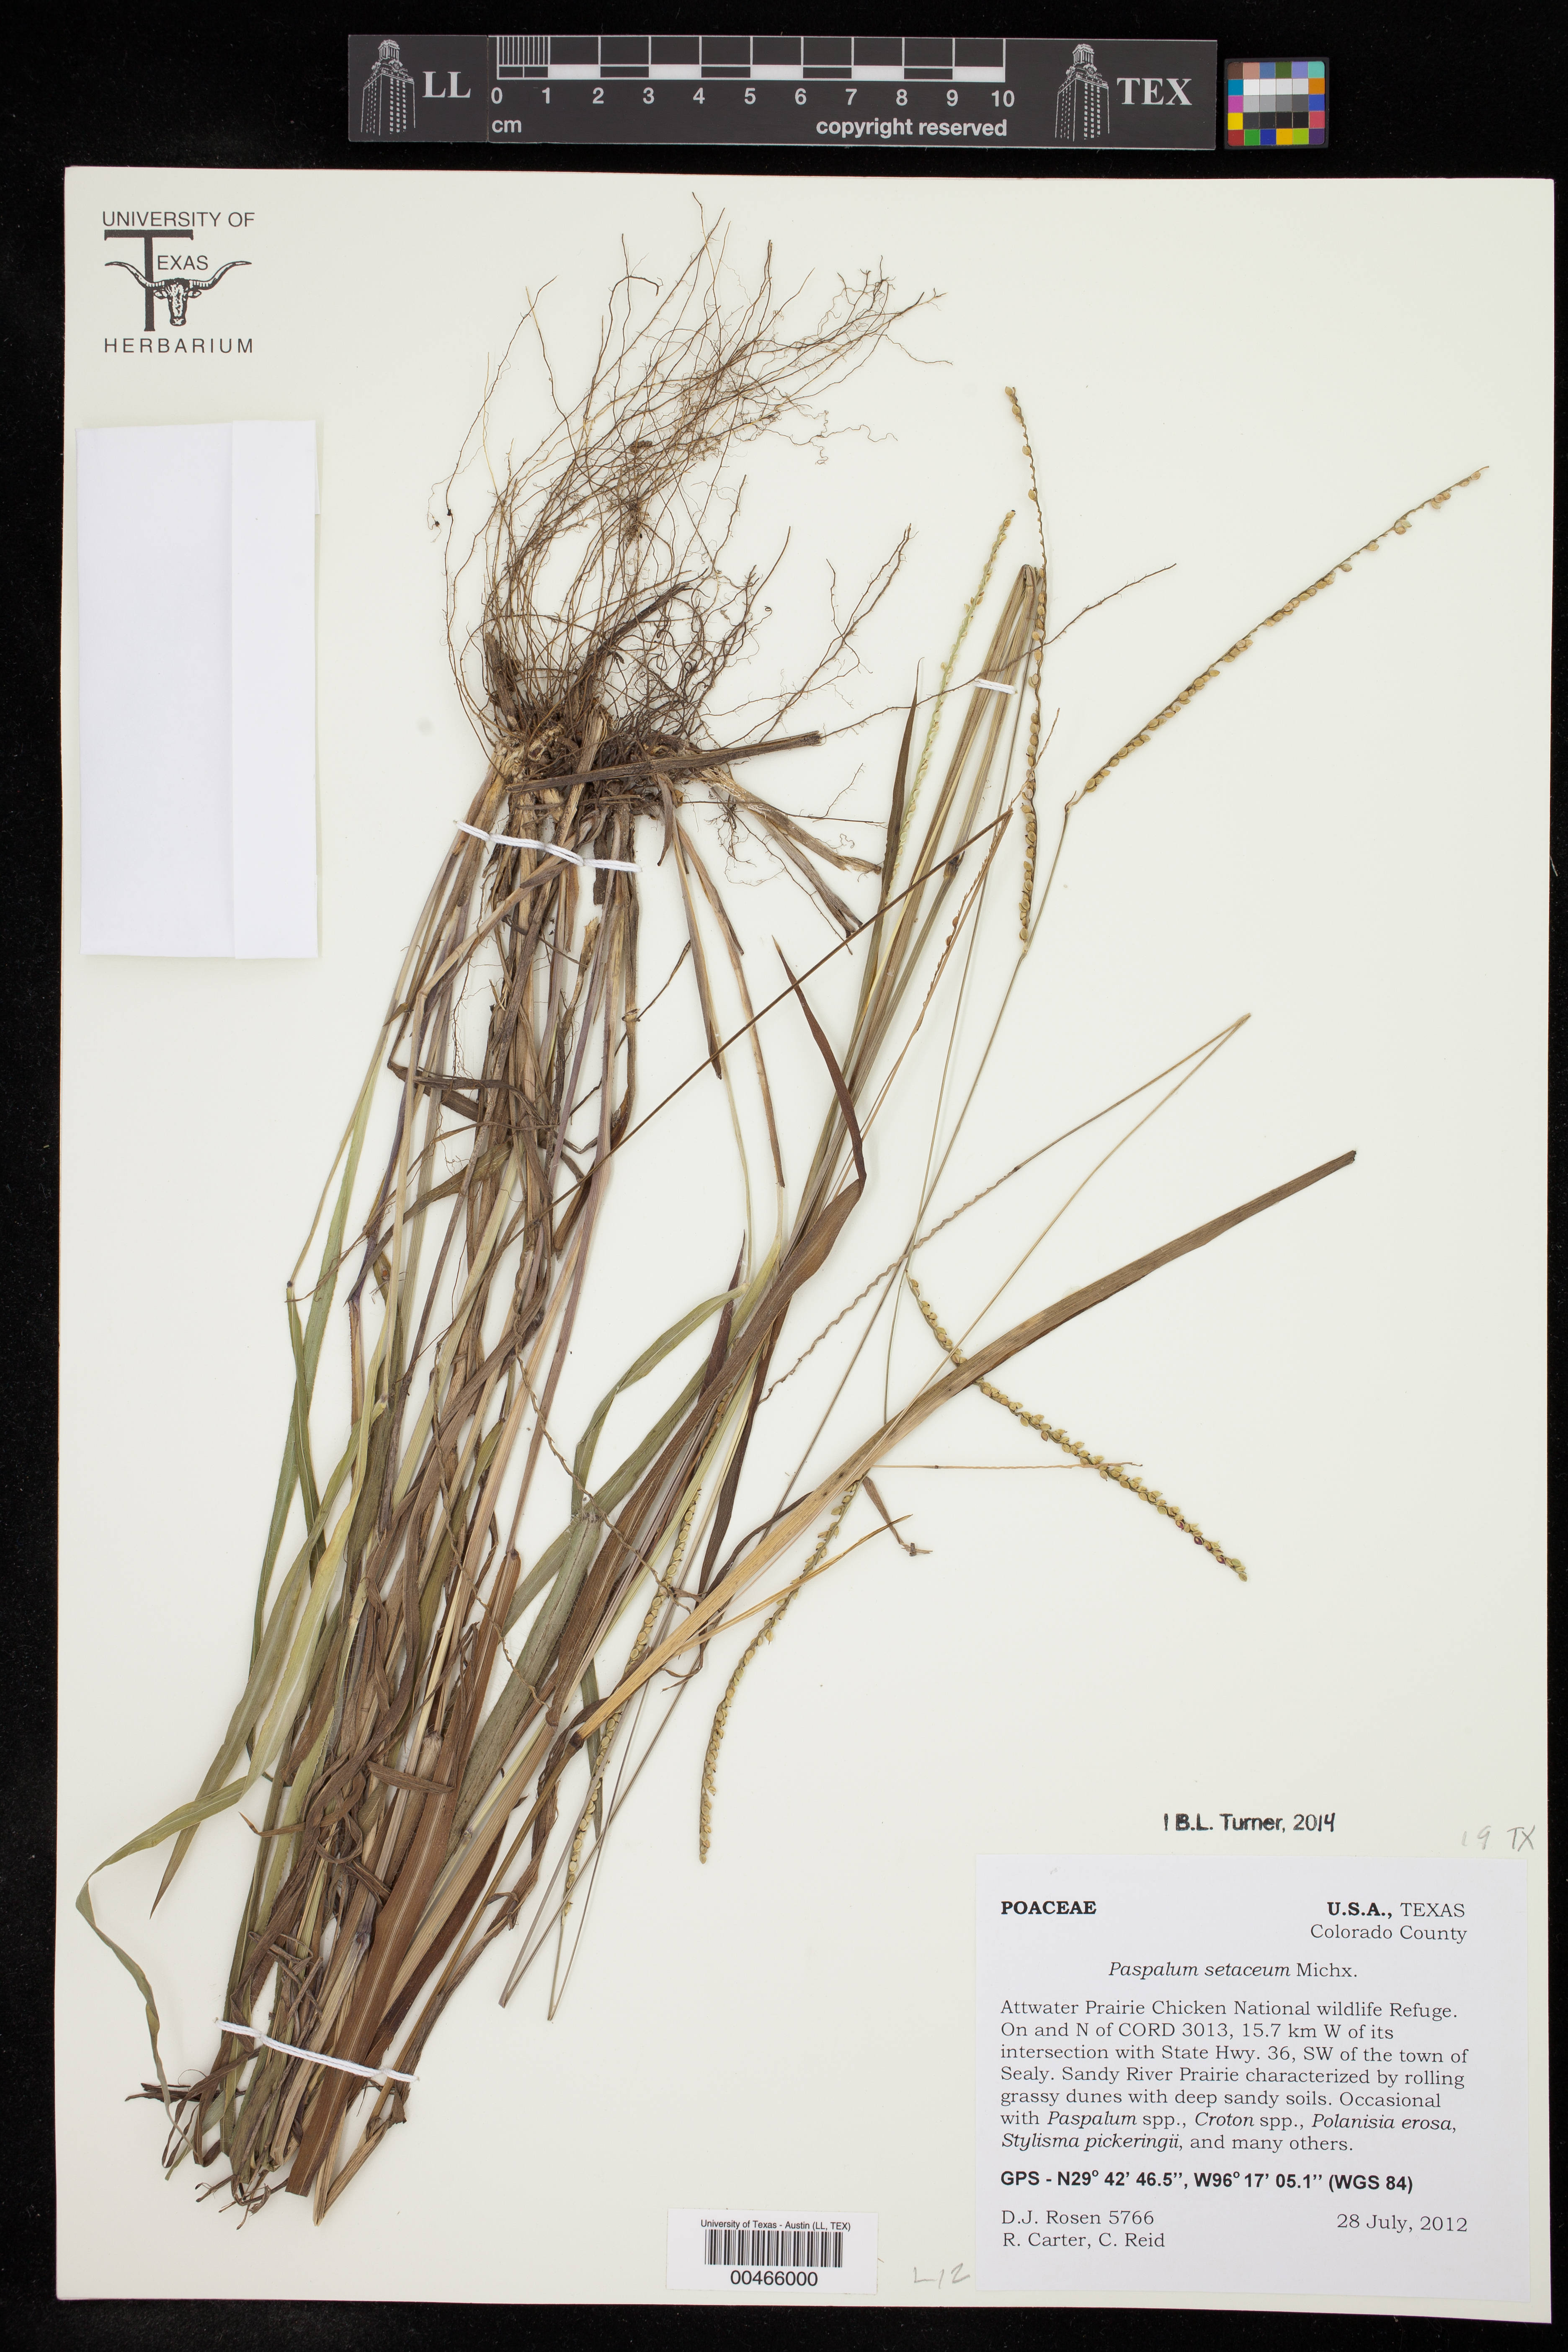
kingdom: Plantae
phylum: Tracheophyta
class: Liliopsida
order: Poales
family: Poaceae
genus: Paspalum
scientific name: Paspalum setaceum
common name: Slender paspalum
